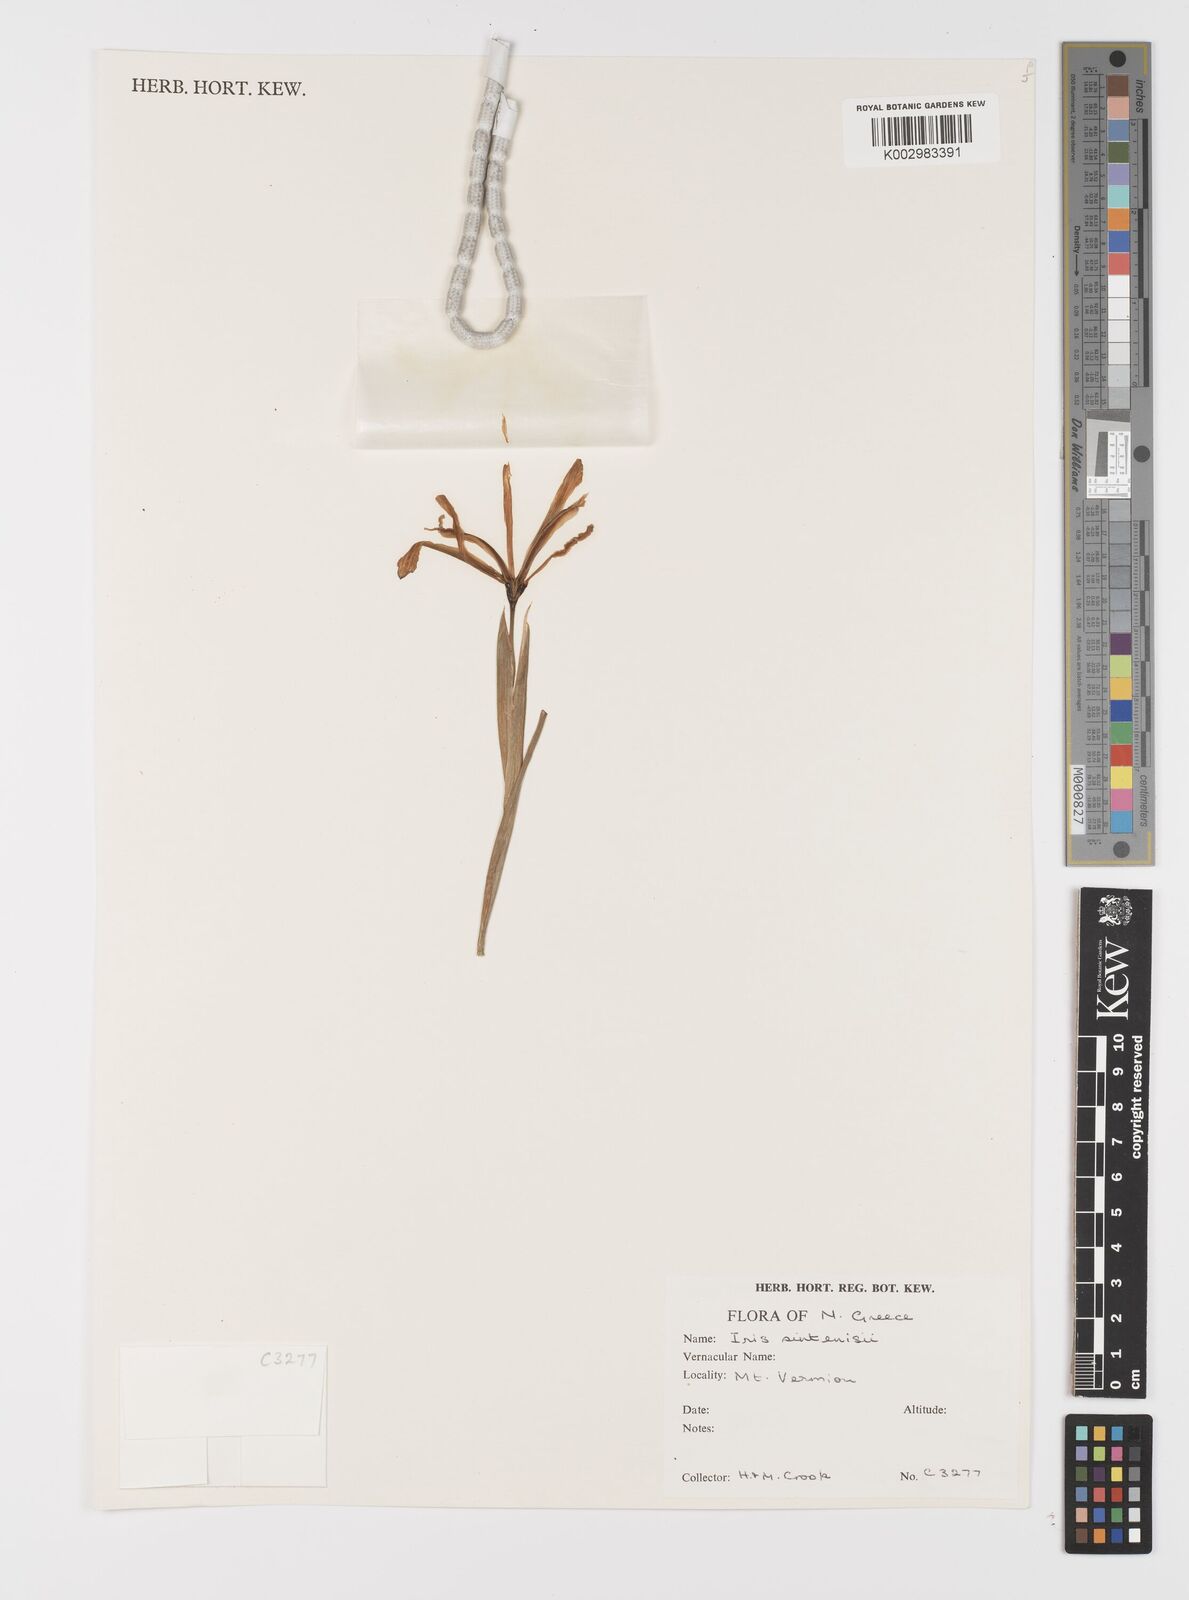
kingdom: Plantae
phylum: Tracheophyta
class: Liliopsida
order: Asparagales
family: Iridaceae
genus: Iris
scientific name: Iris sintenisii
